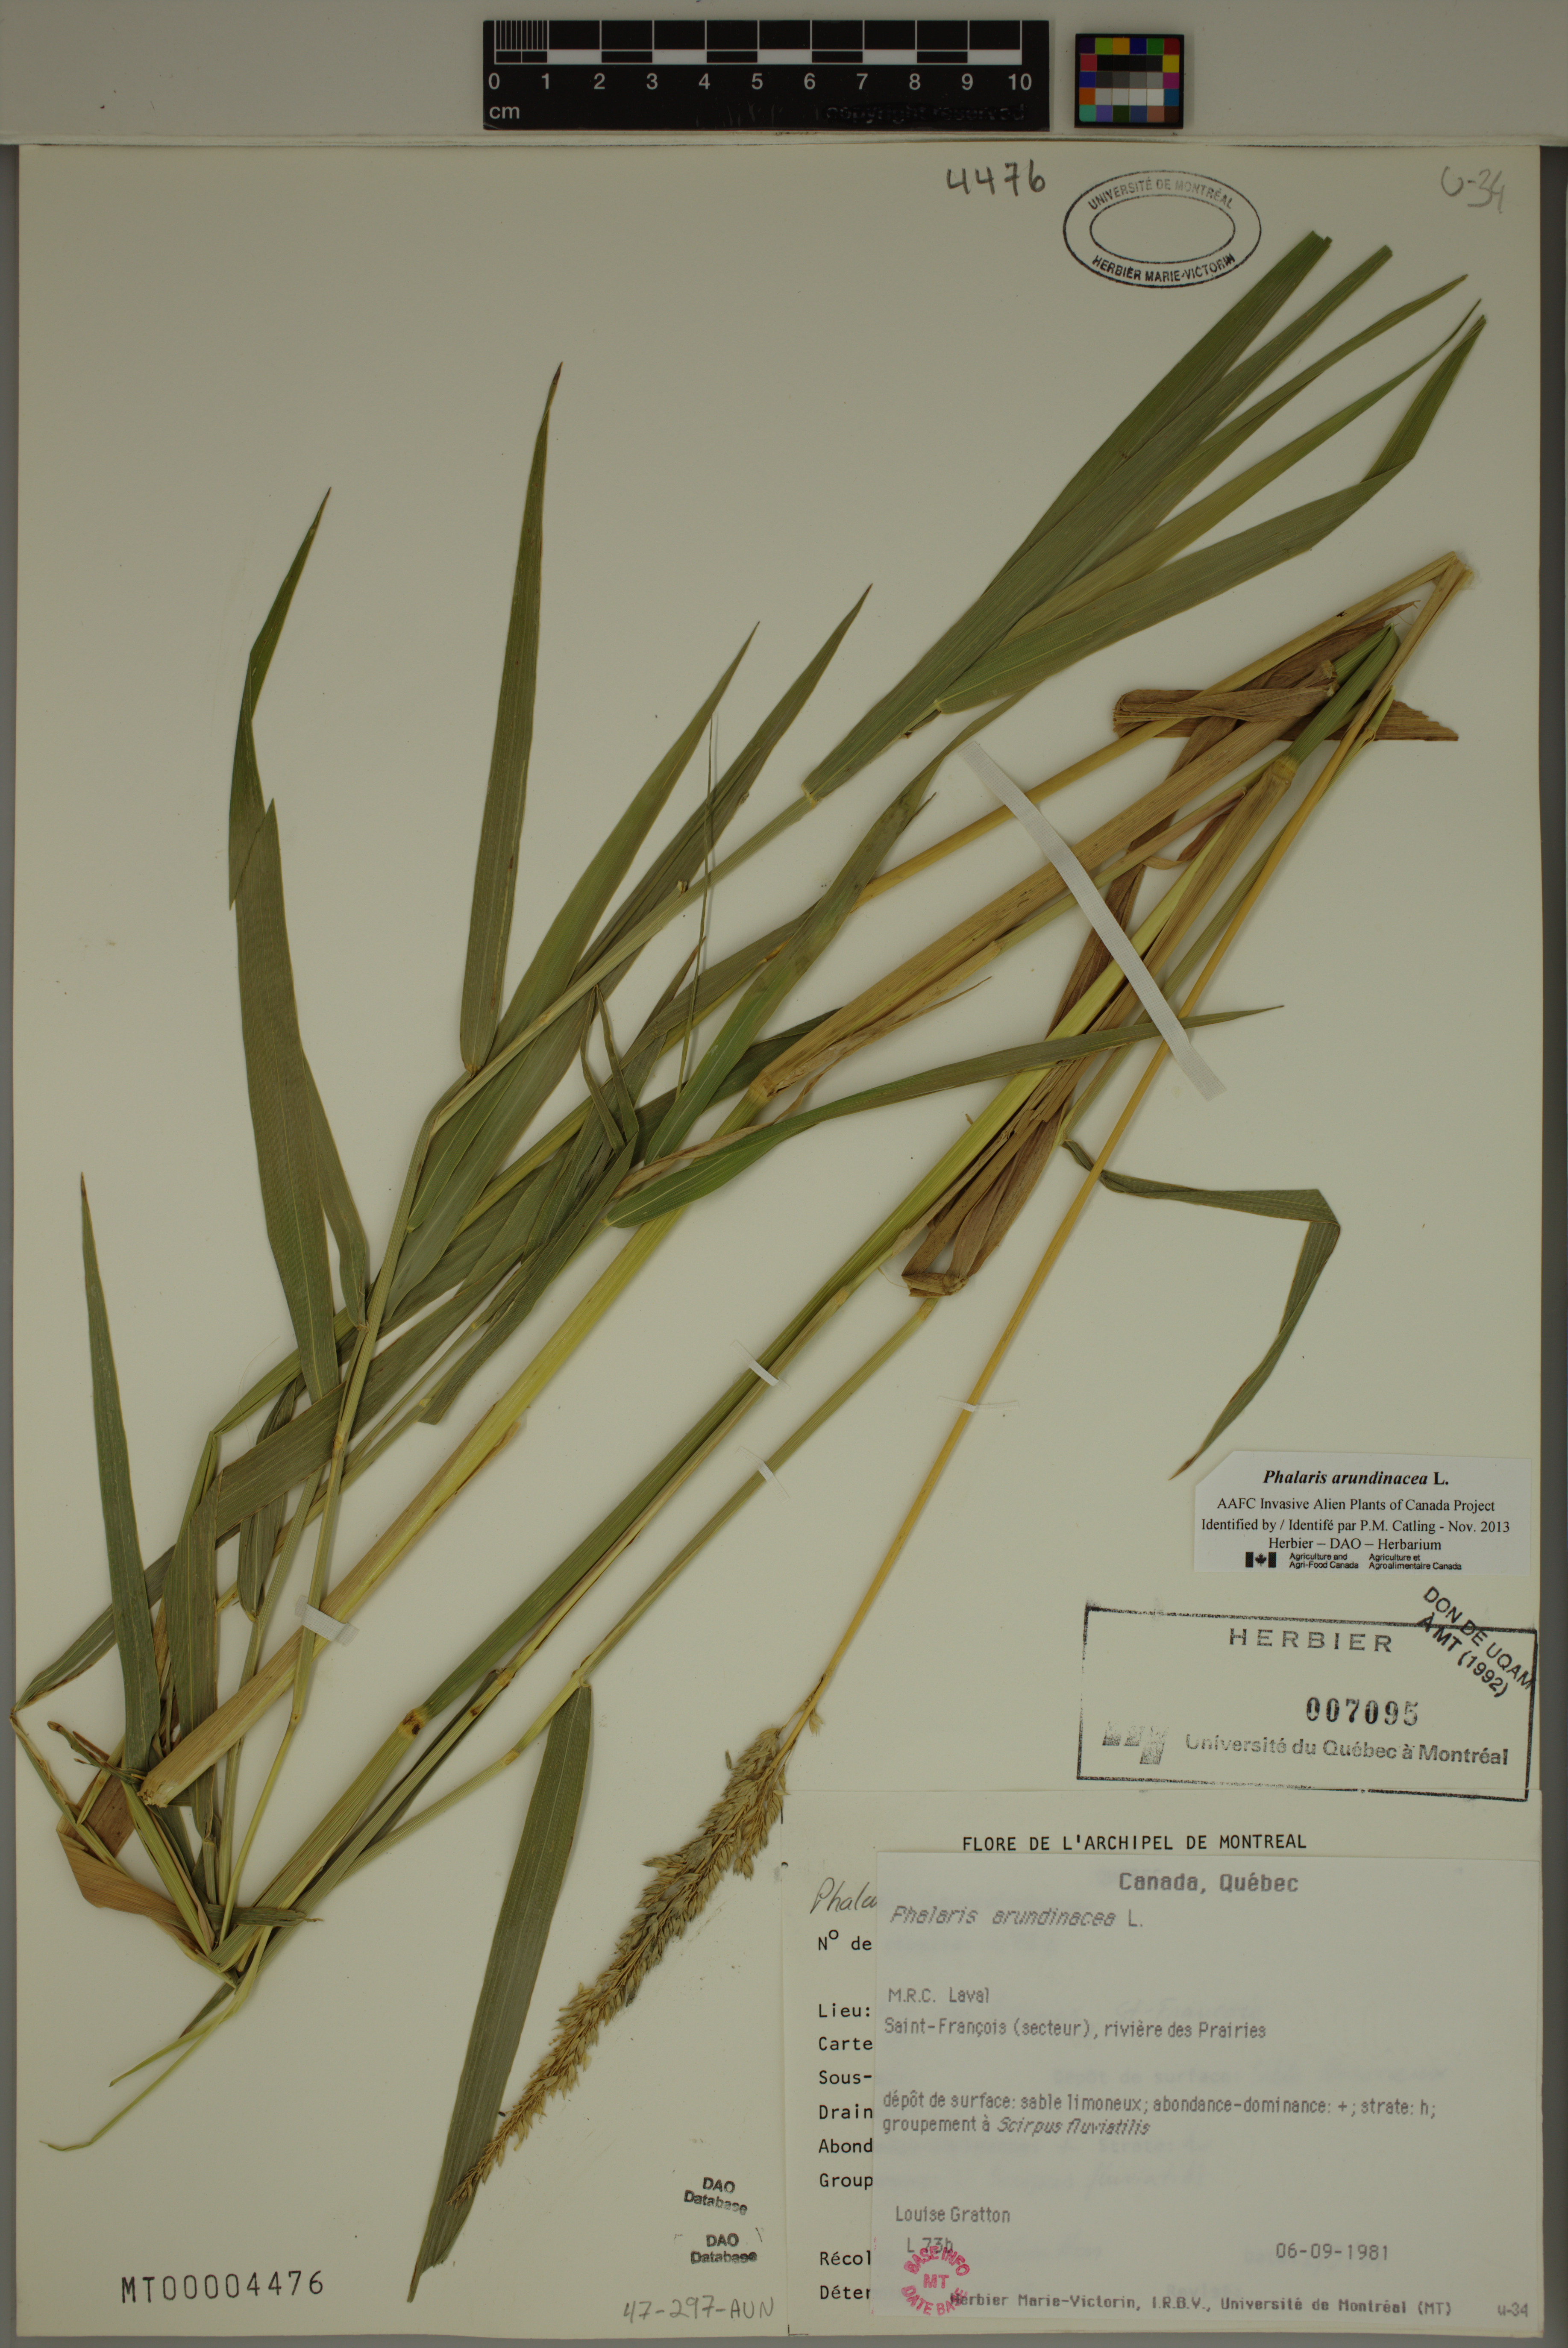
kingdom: Plantae
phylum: Tracheophyta
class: Liliopsida
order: Poales
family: Poaceae
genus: Phalaris
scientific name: Phalaris arundinacea
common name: Reed canary-grass
